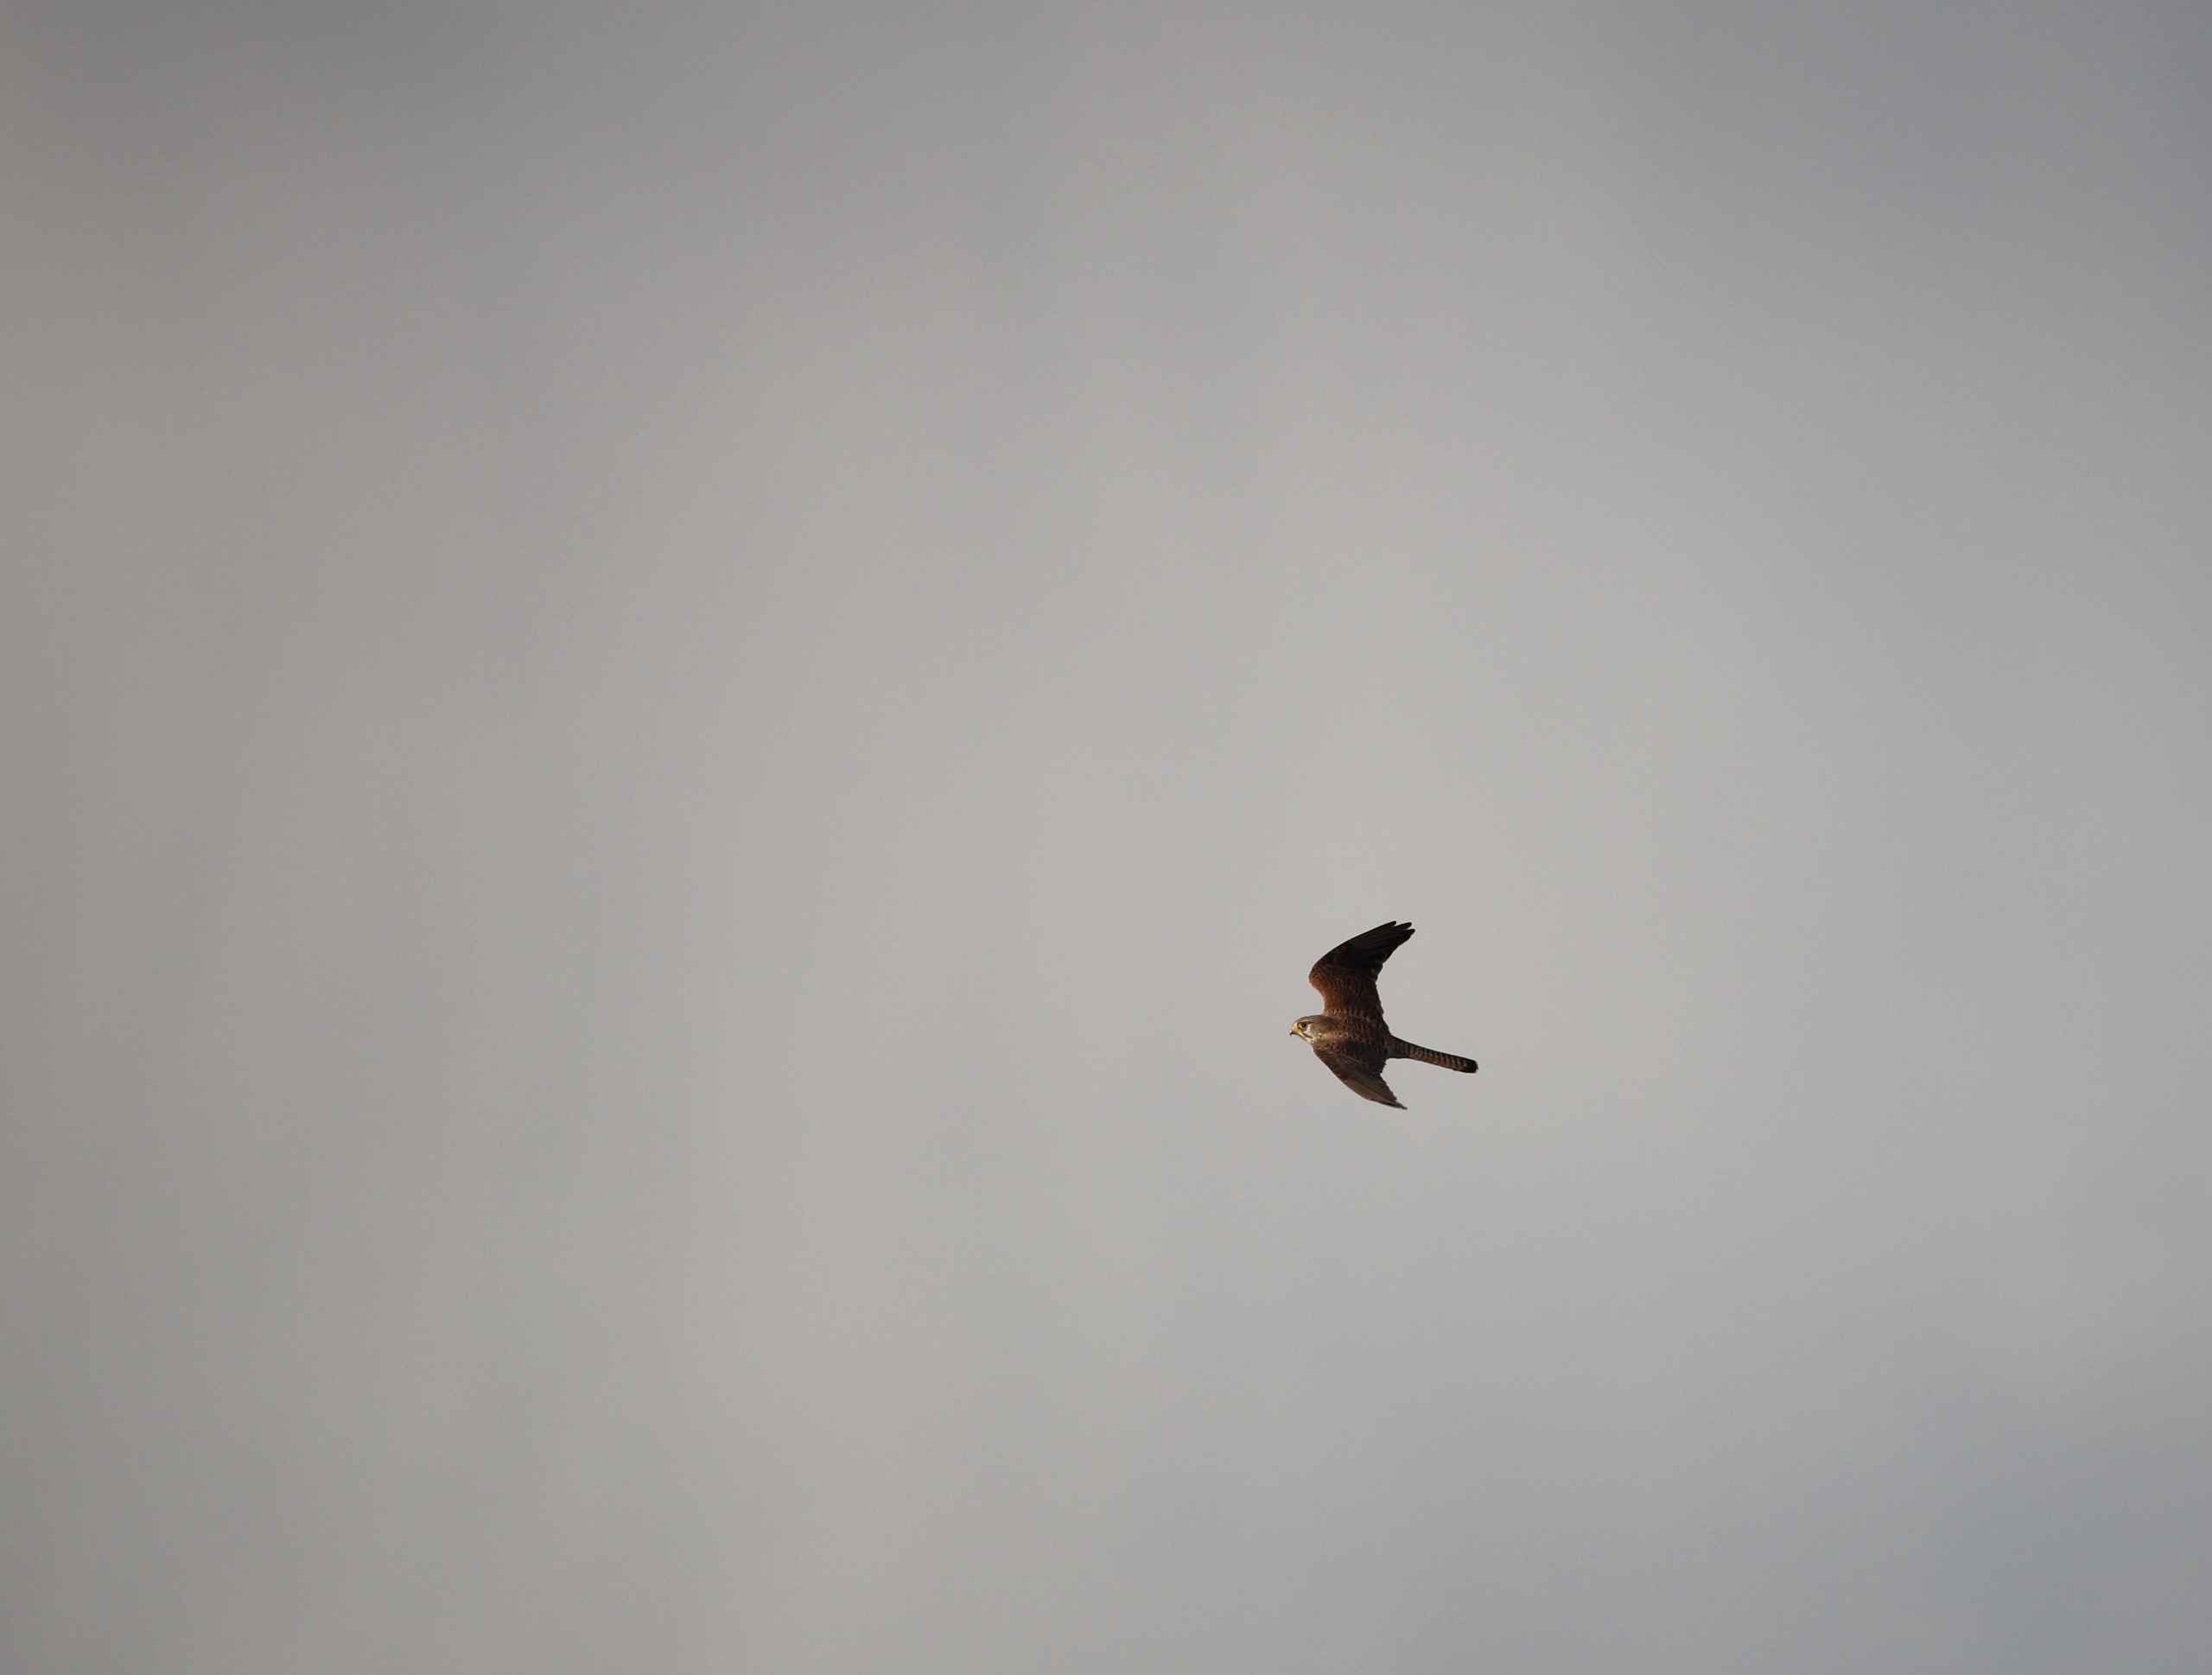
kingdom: Animalia
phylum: Chordata
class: Aves
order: Falconiformes
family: Falconidae
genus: Falco
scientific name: Falco tinnunculus
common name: Tårnfalk
